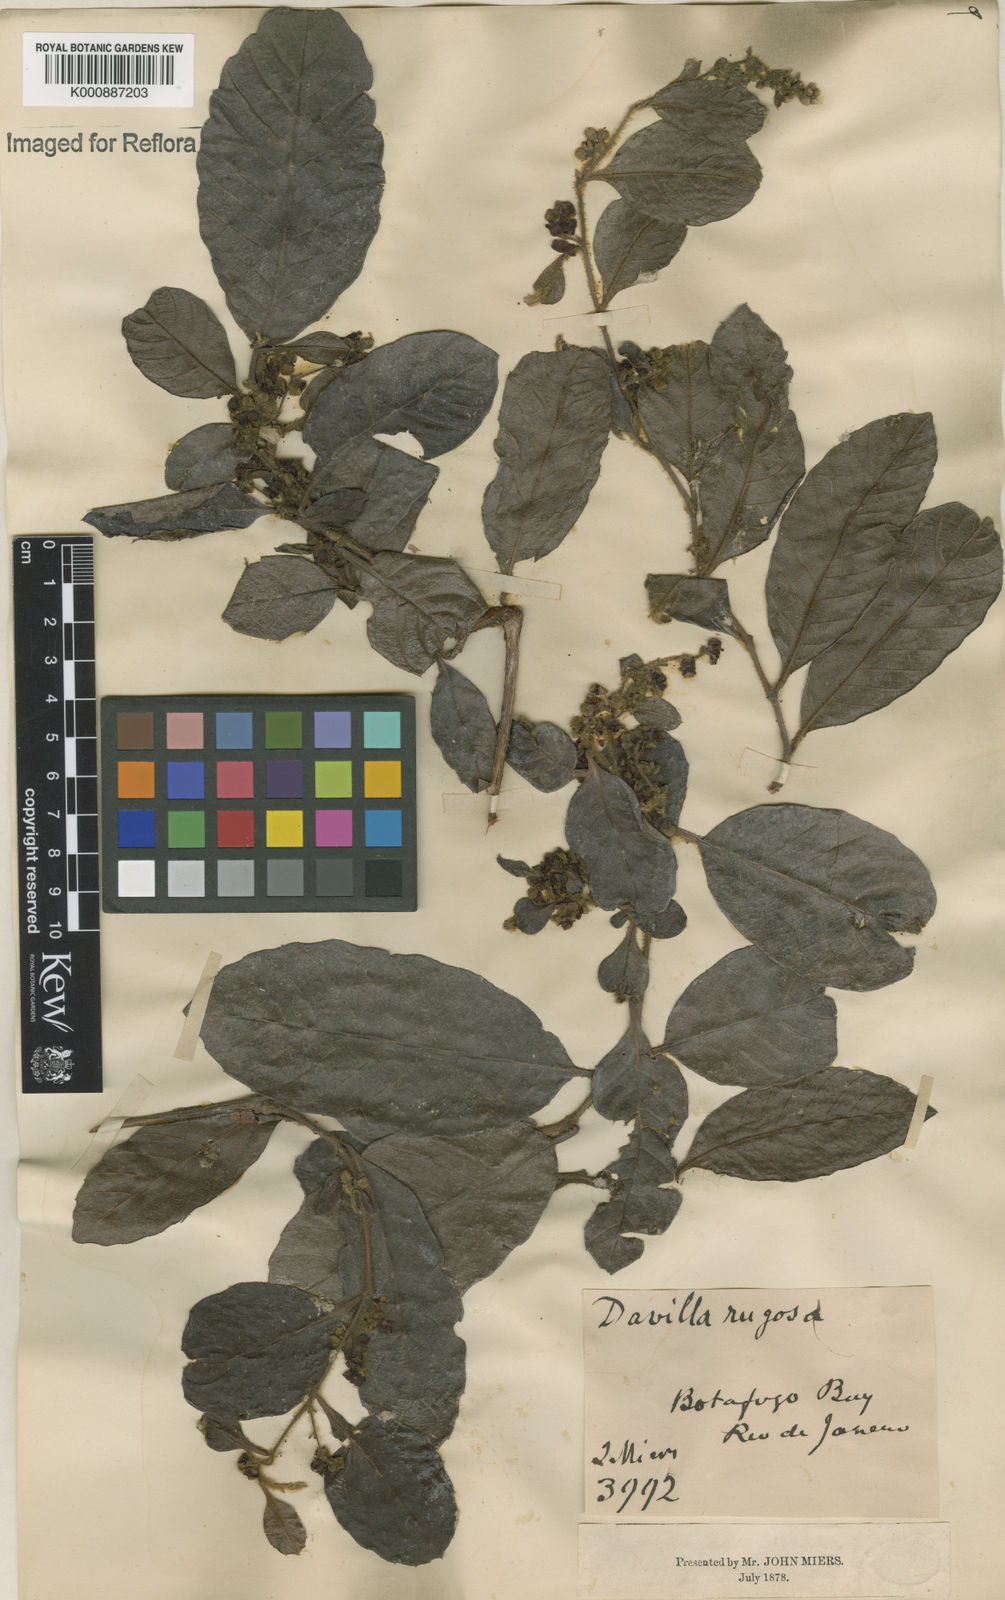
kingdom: Plantae
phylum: Tracheophyta
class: Magnoliopsida
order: Dilleniales
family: Dilleniaceae
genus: Davilla
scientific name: Davilla rugosa
